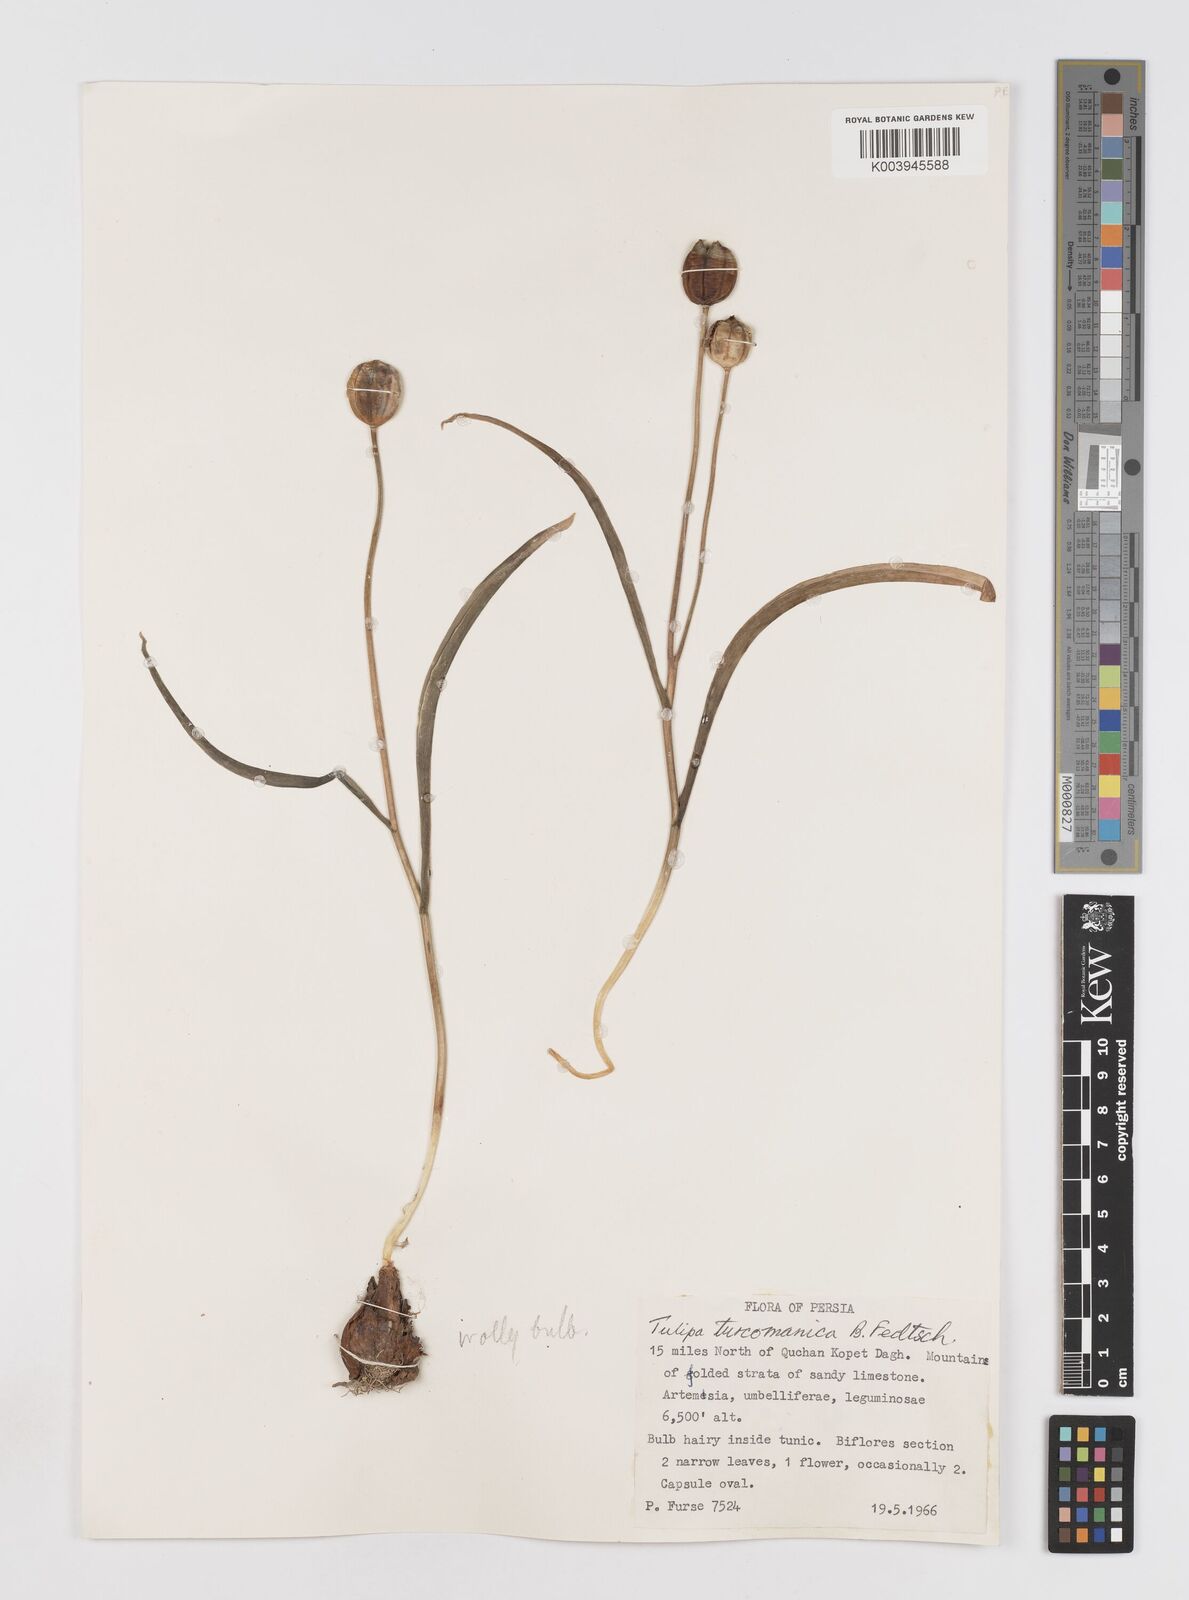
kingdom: Plantae
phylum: Tracheophyta
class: Liliopsida
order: Liliales
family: Liliaceae
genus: Tulipa
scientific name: Tulipa biflora
